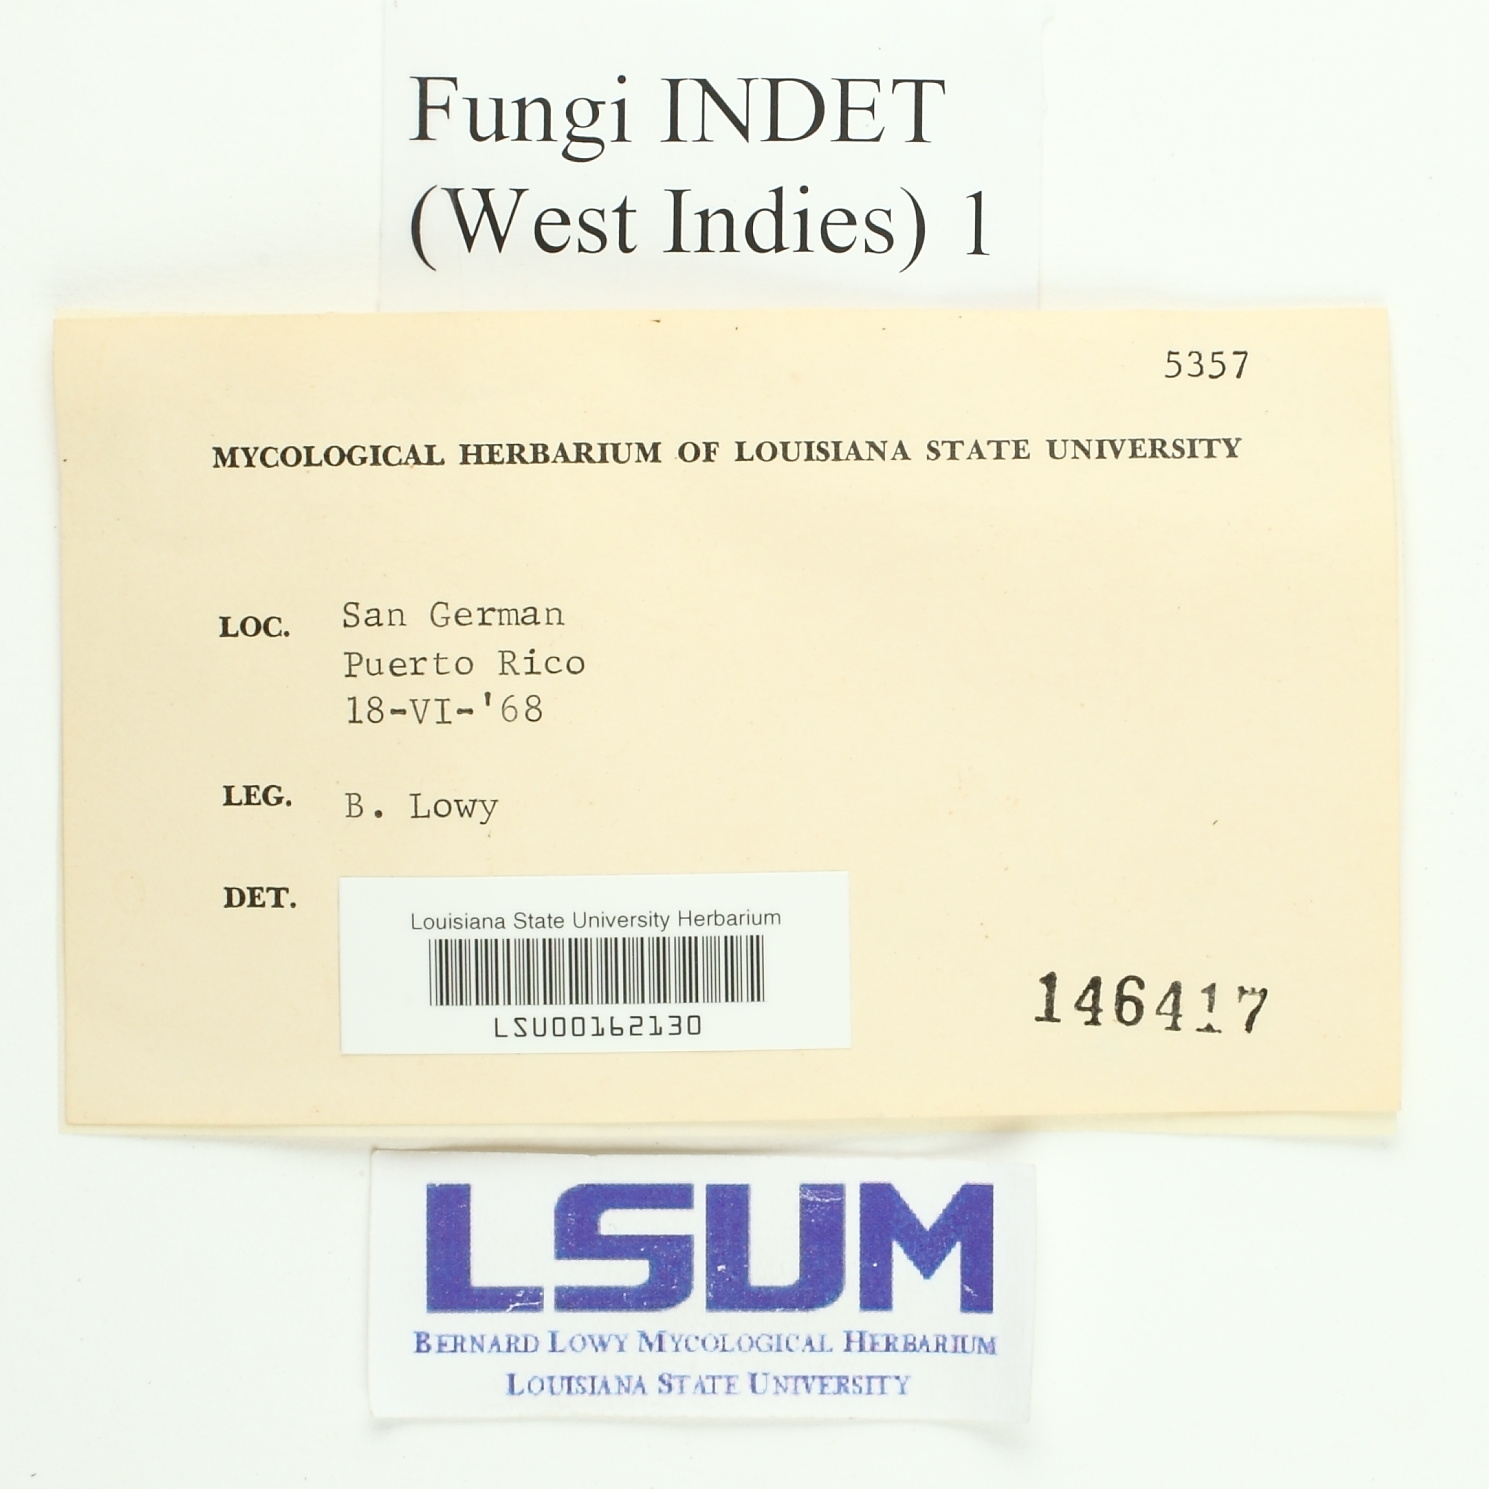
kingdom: Fungi
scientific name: Fungi
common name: Fungi
